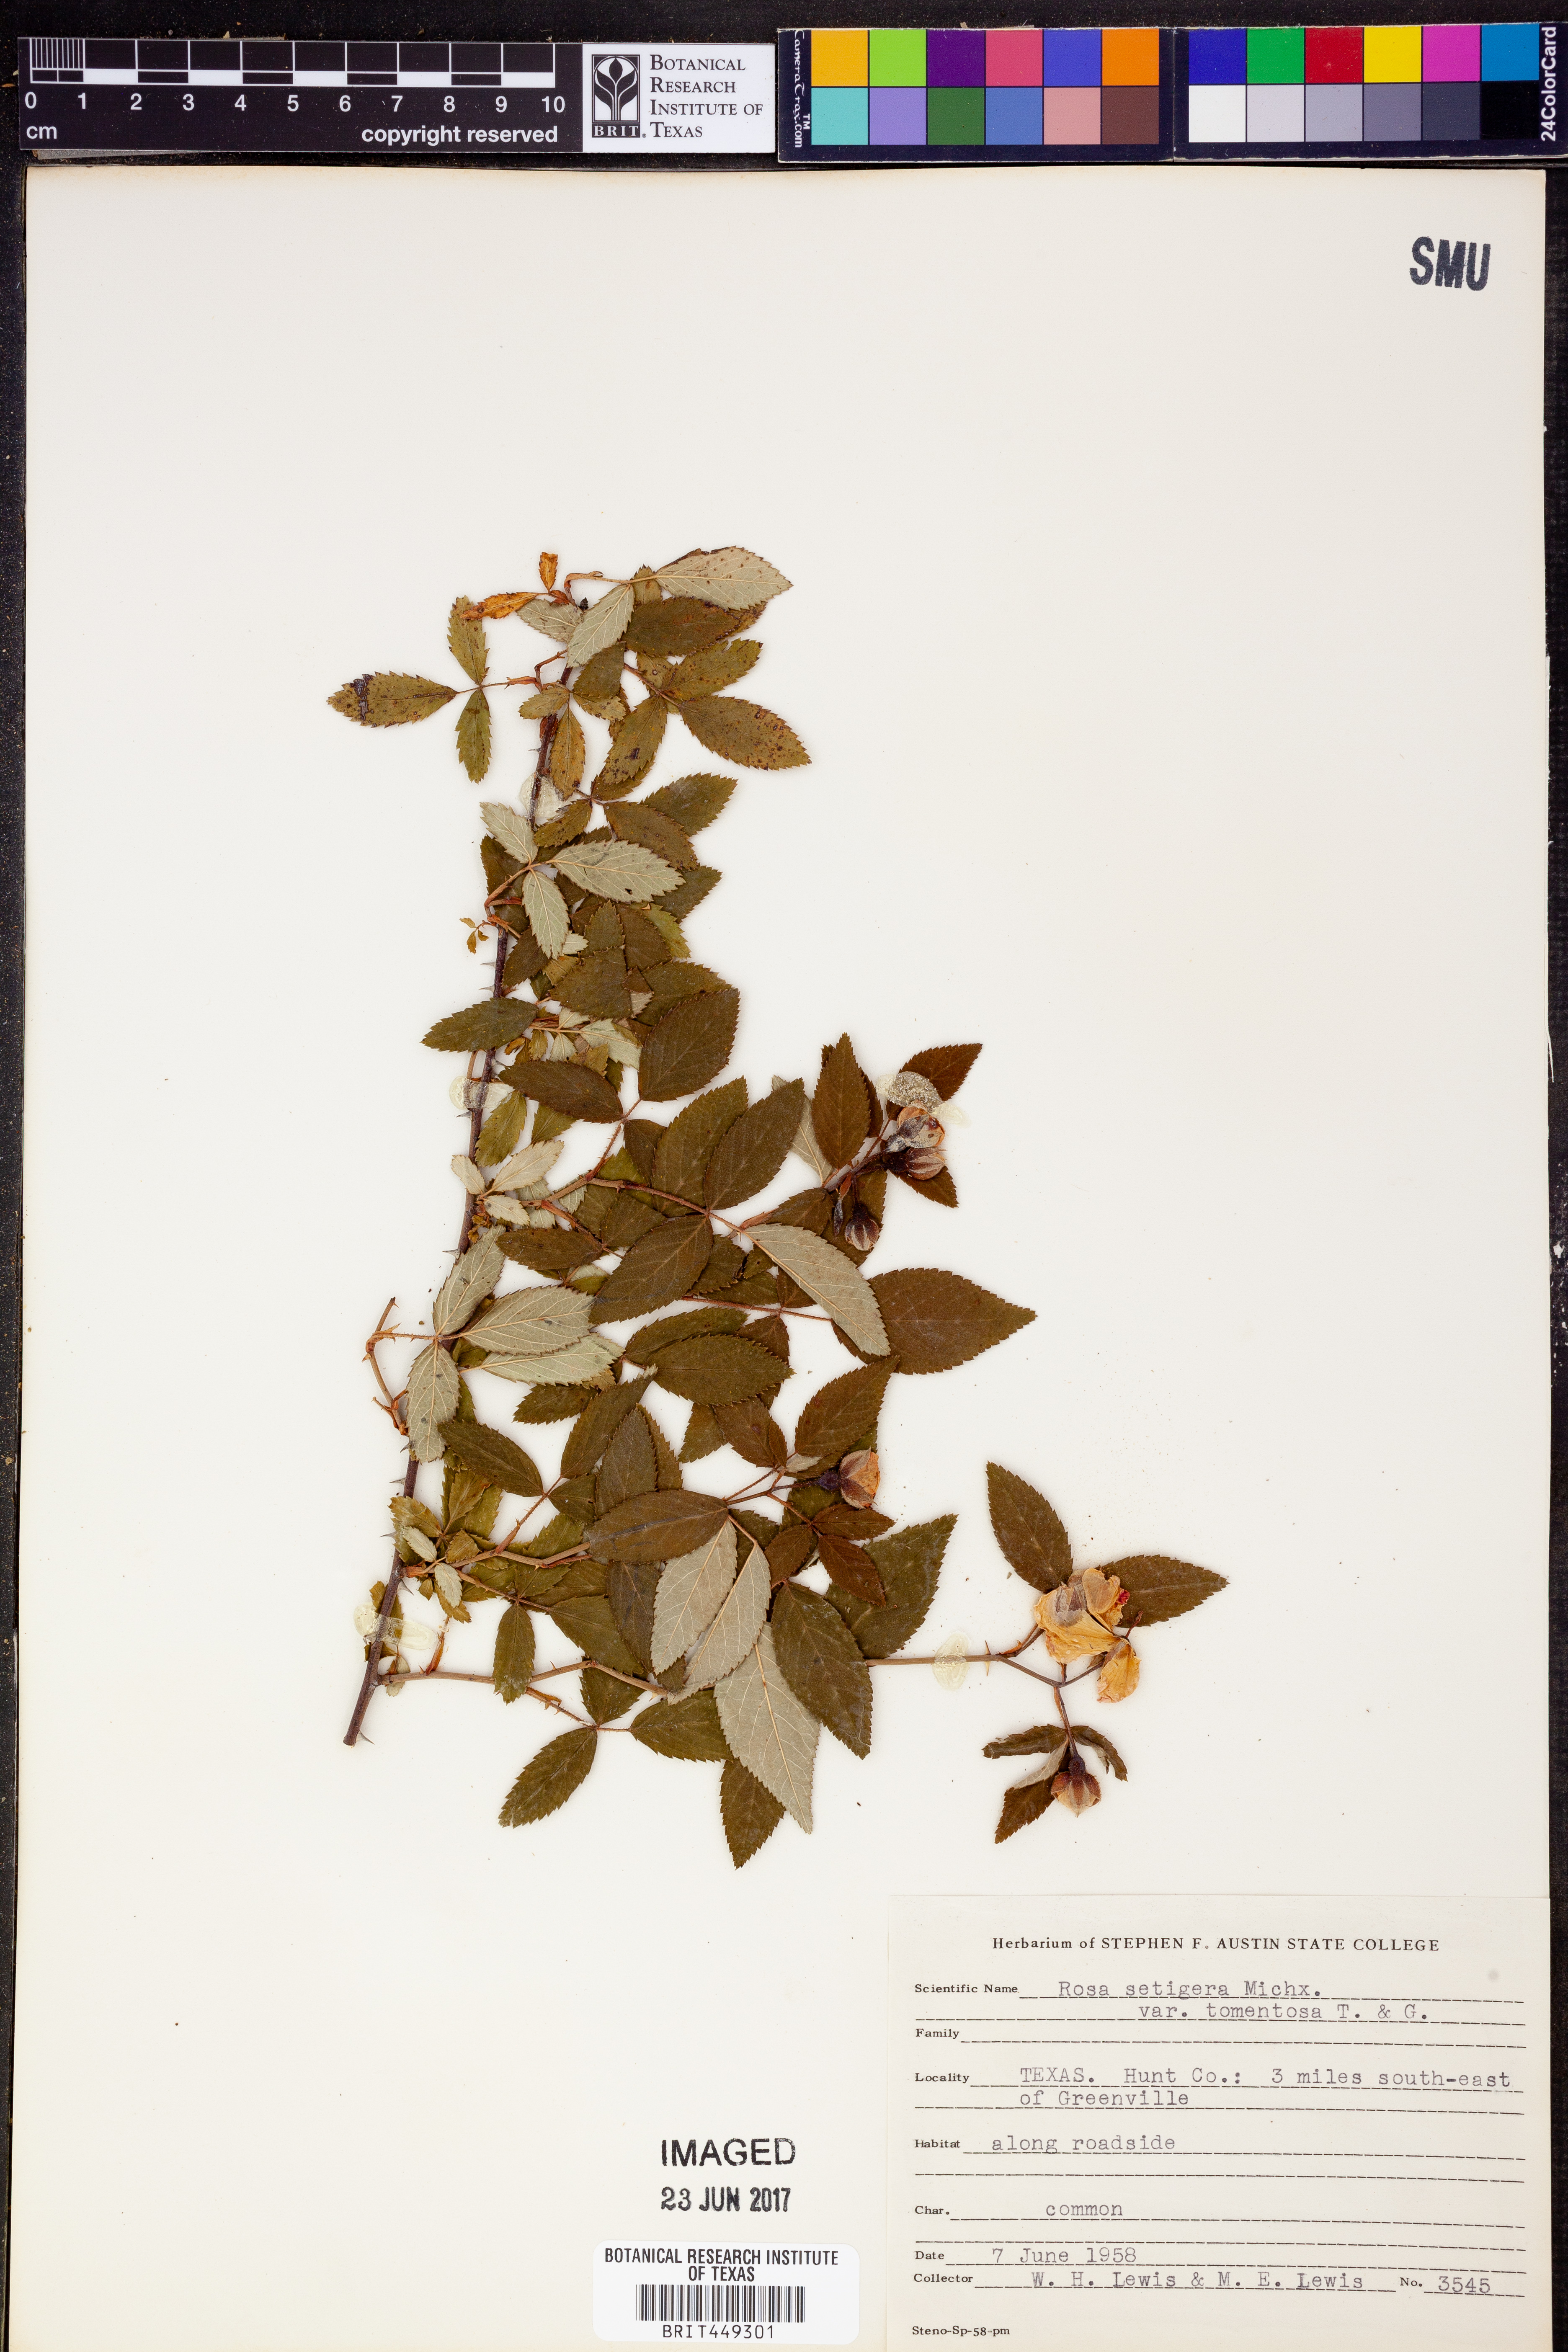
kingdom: Plantae
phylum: Tracheophyta
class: Magnoliopsida
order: Rosales
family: Rosaceae
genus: Rosa
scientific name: Rosa setigera
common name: Prairie rose
